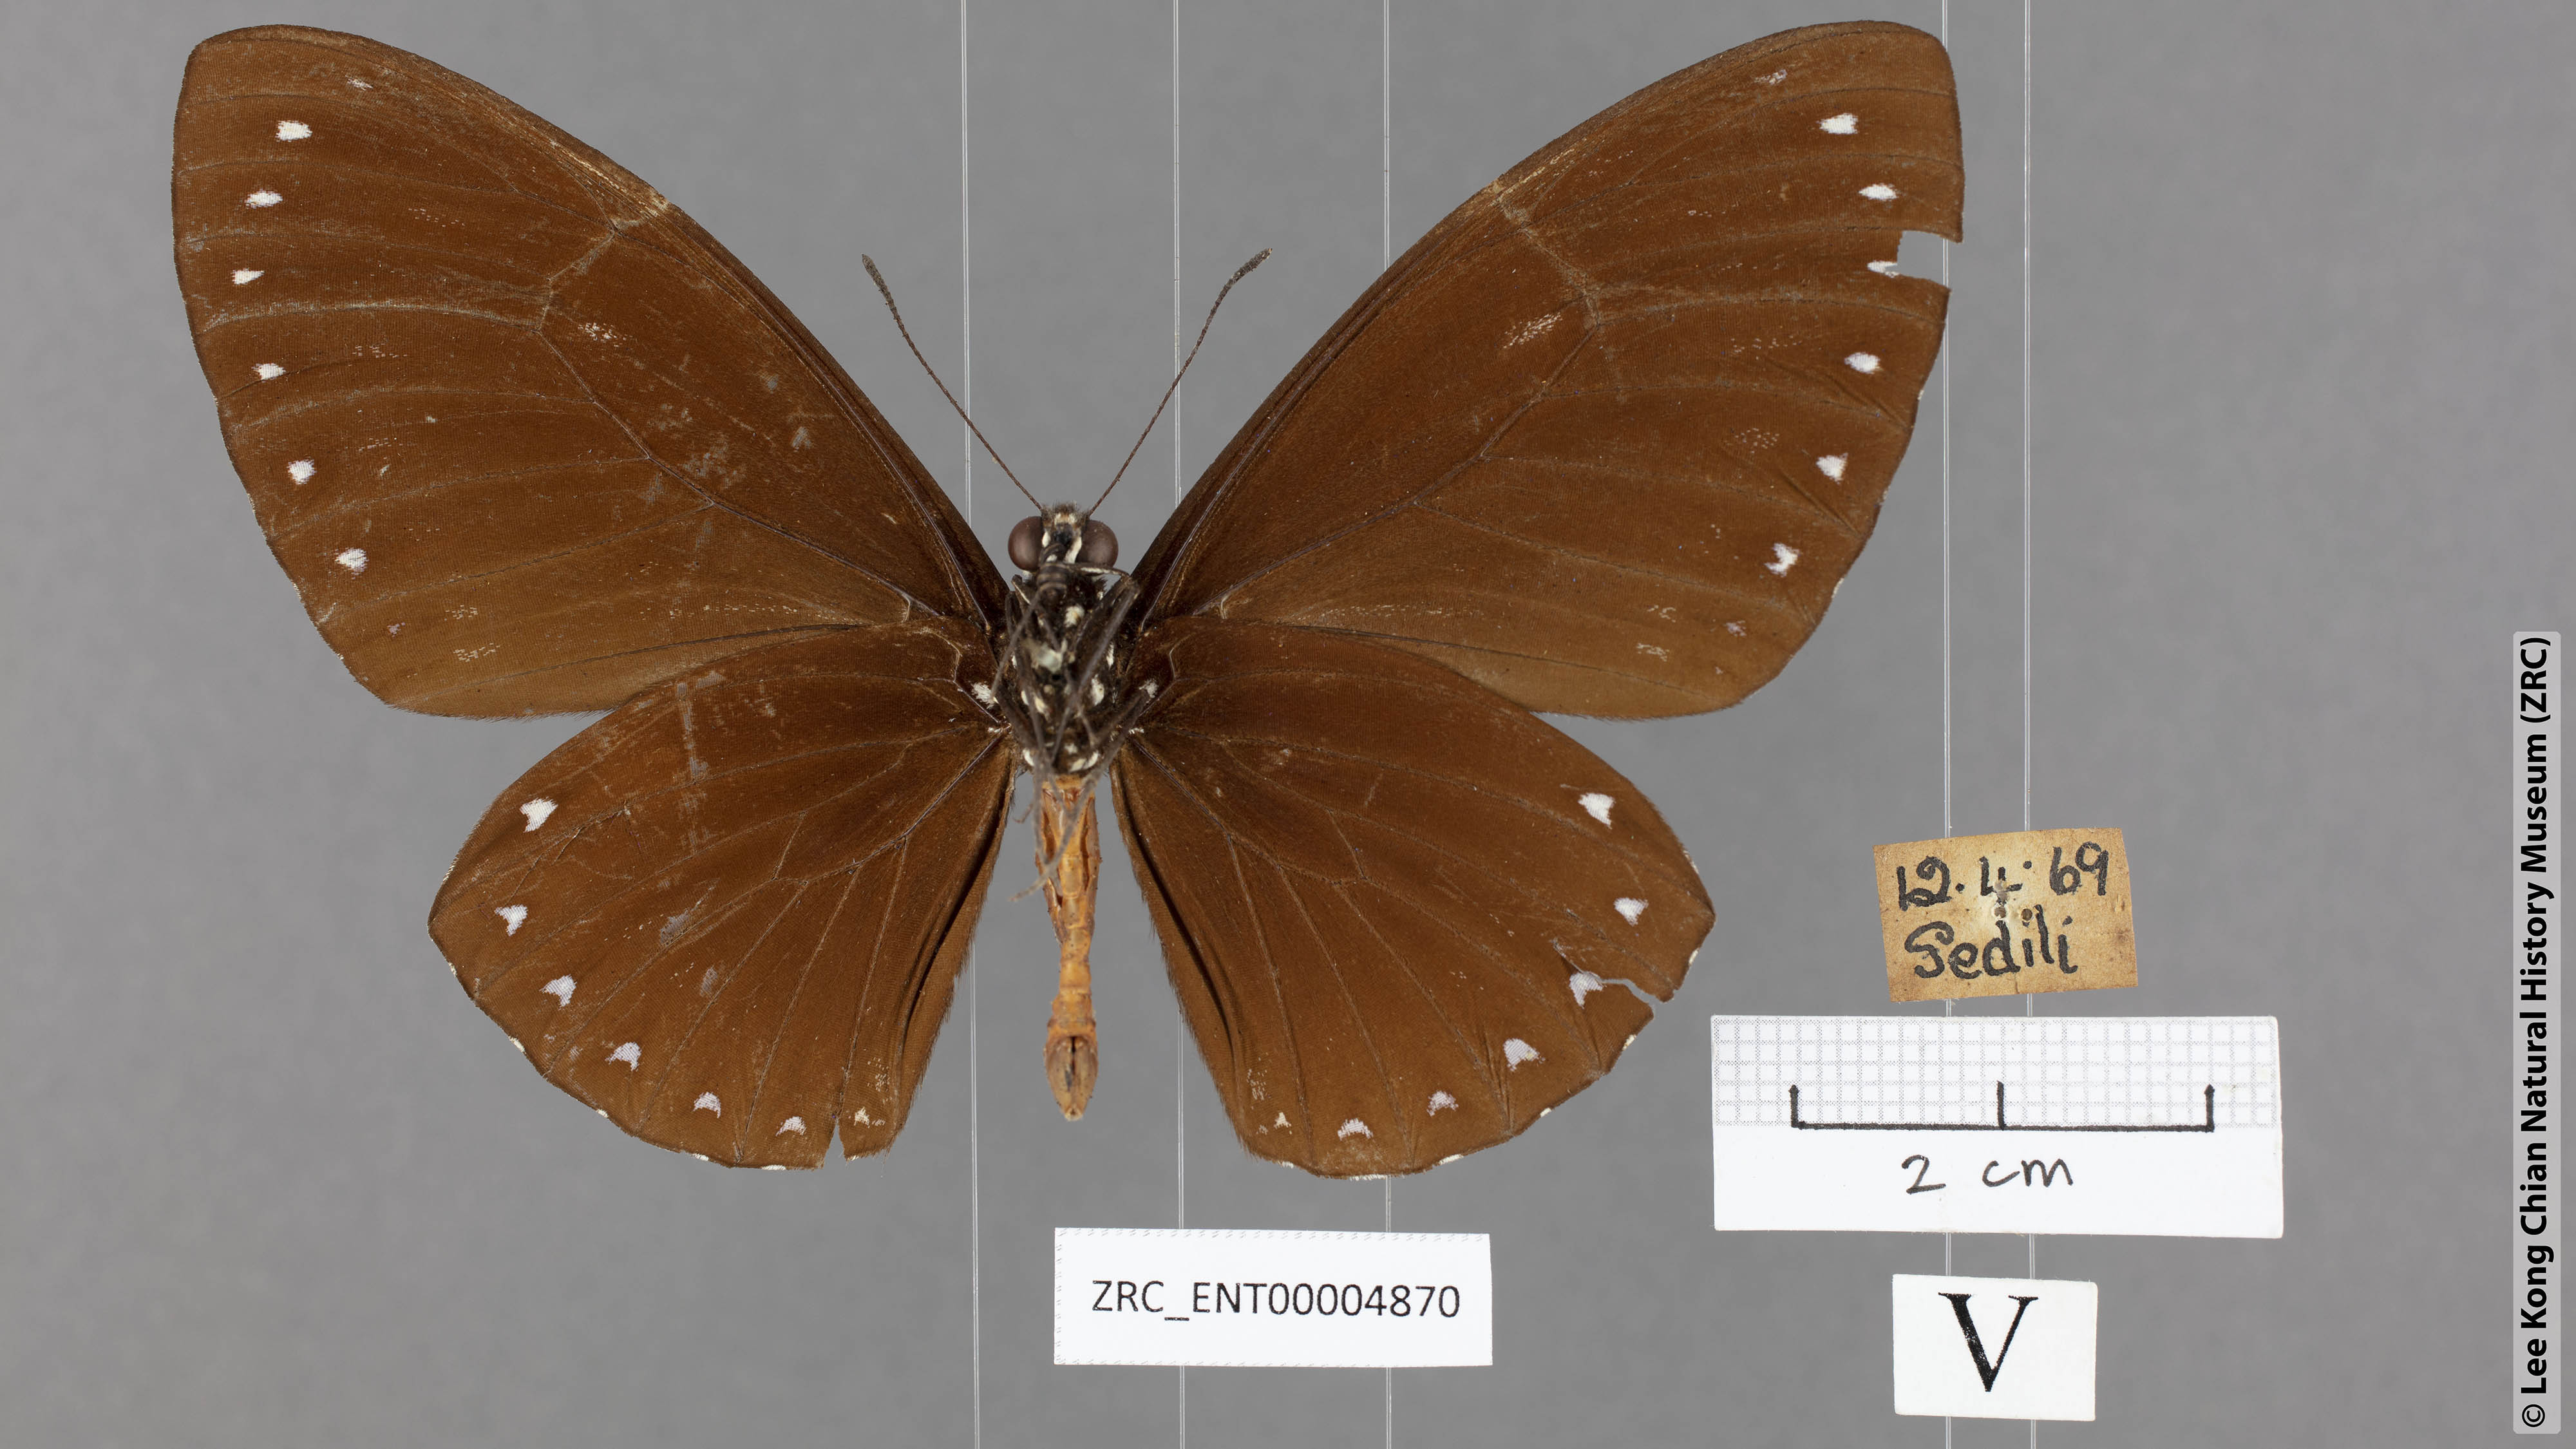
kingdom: Animalia
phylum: Arthropoda
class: Insecta
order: Lepidoptera
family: Papilionidae
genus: Chilasa
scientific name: Chilasa paradoxa
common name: Great mime
